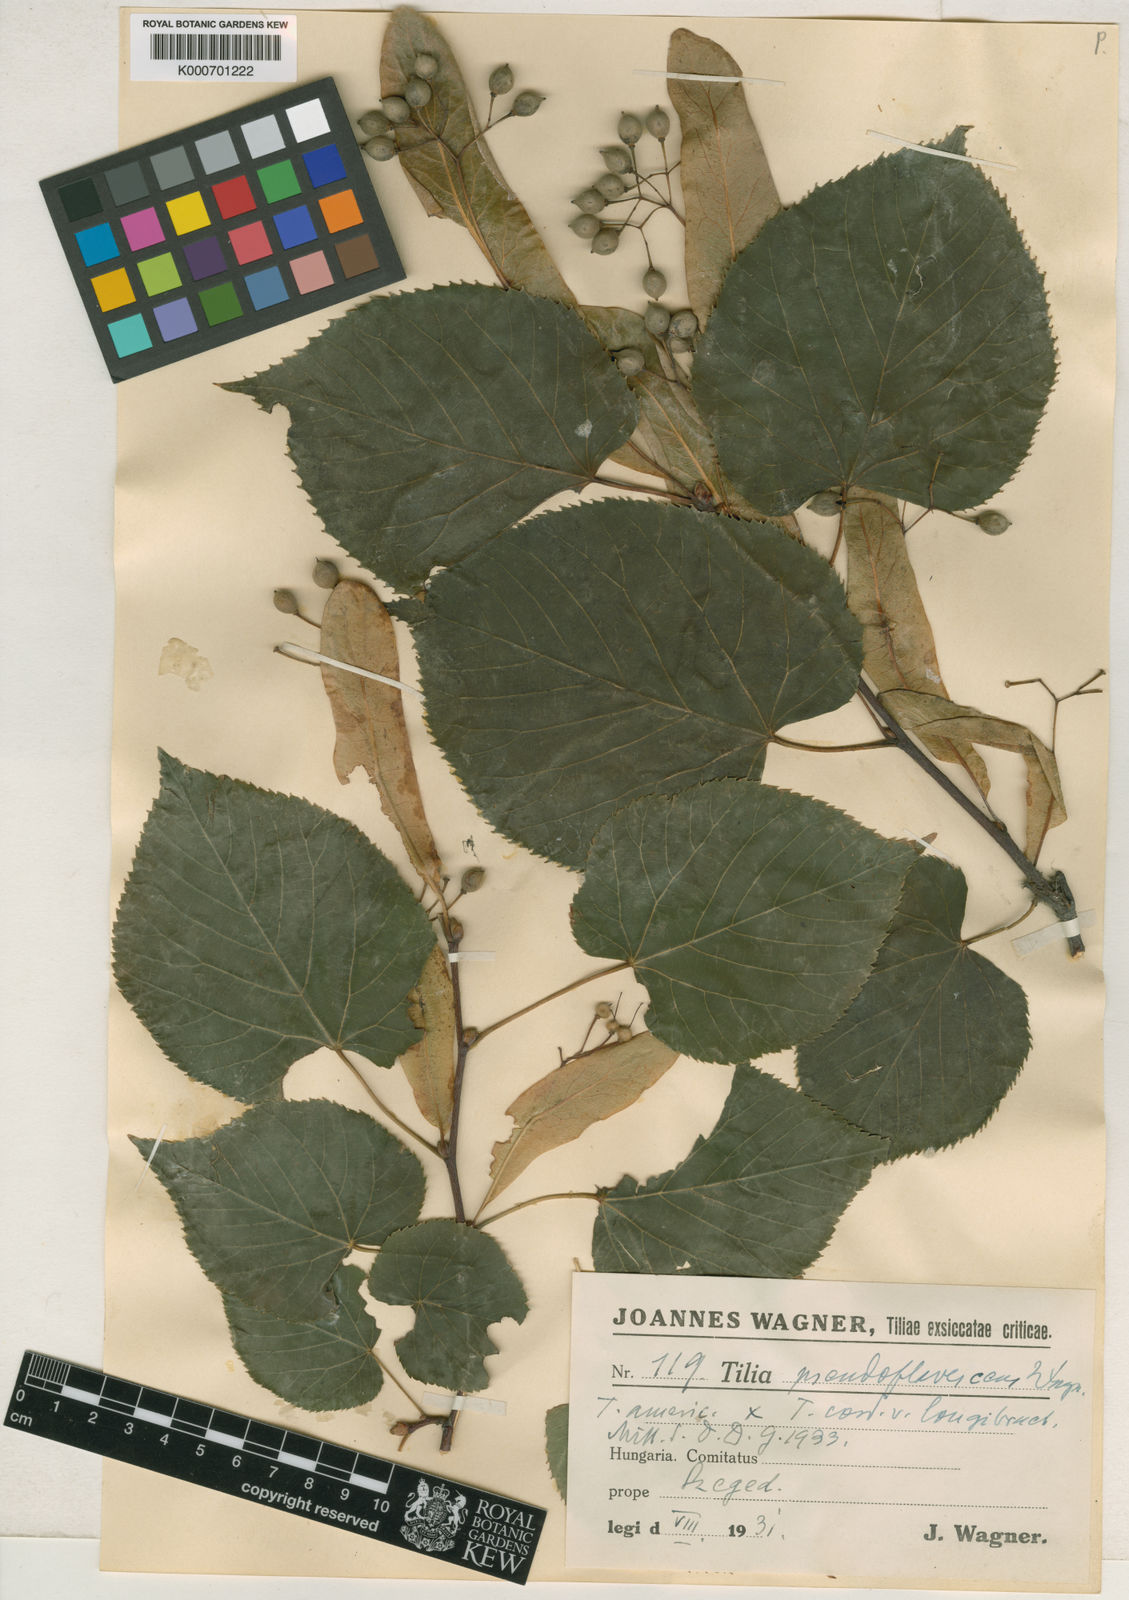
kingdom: Plantae
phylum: Tracheophyta
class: Magnoliopsida
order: Malvales
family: Malvaceae
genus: Tilia
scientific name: Tilia americana
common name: Basswood
